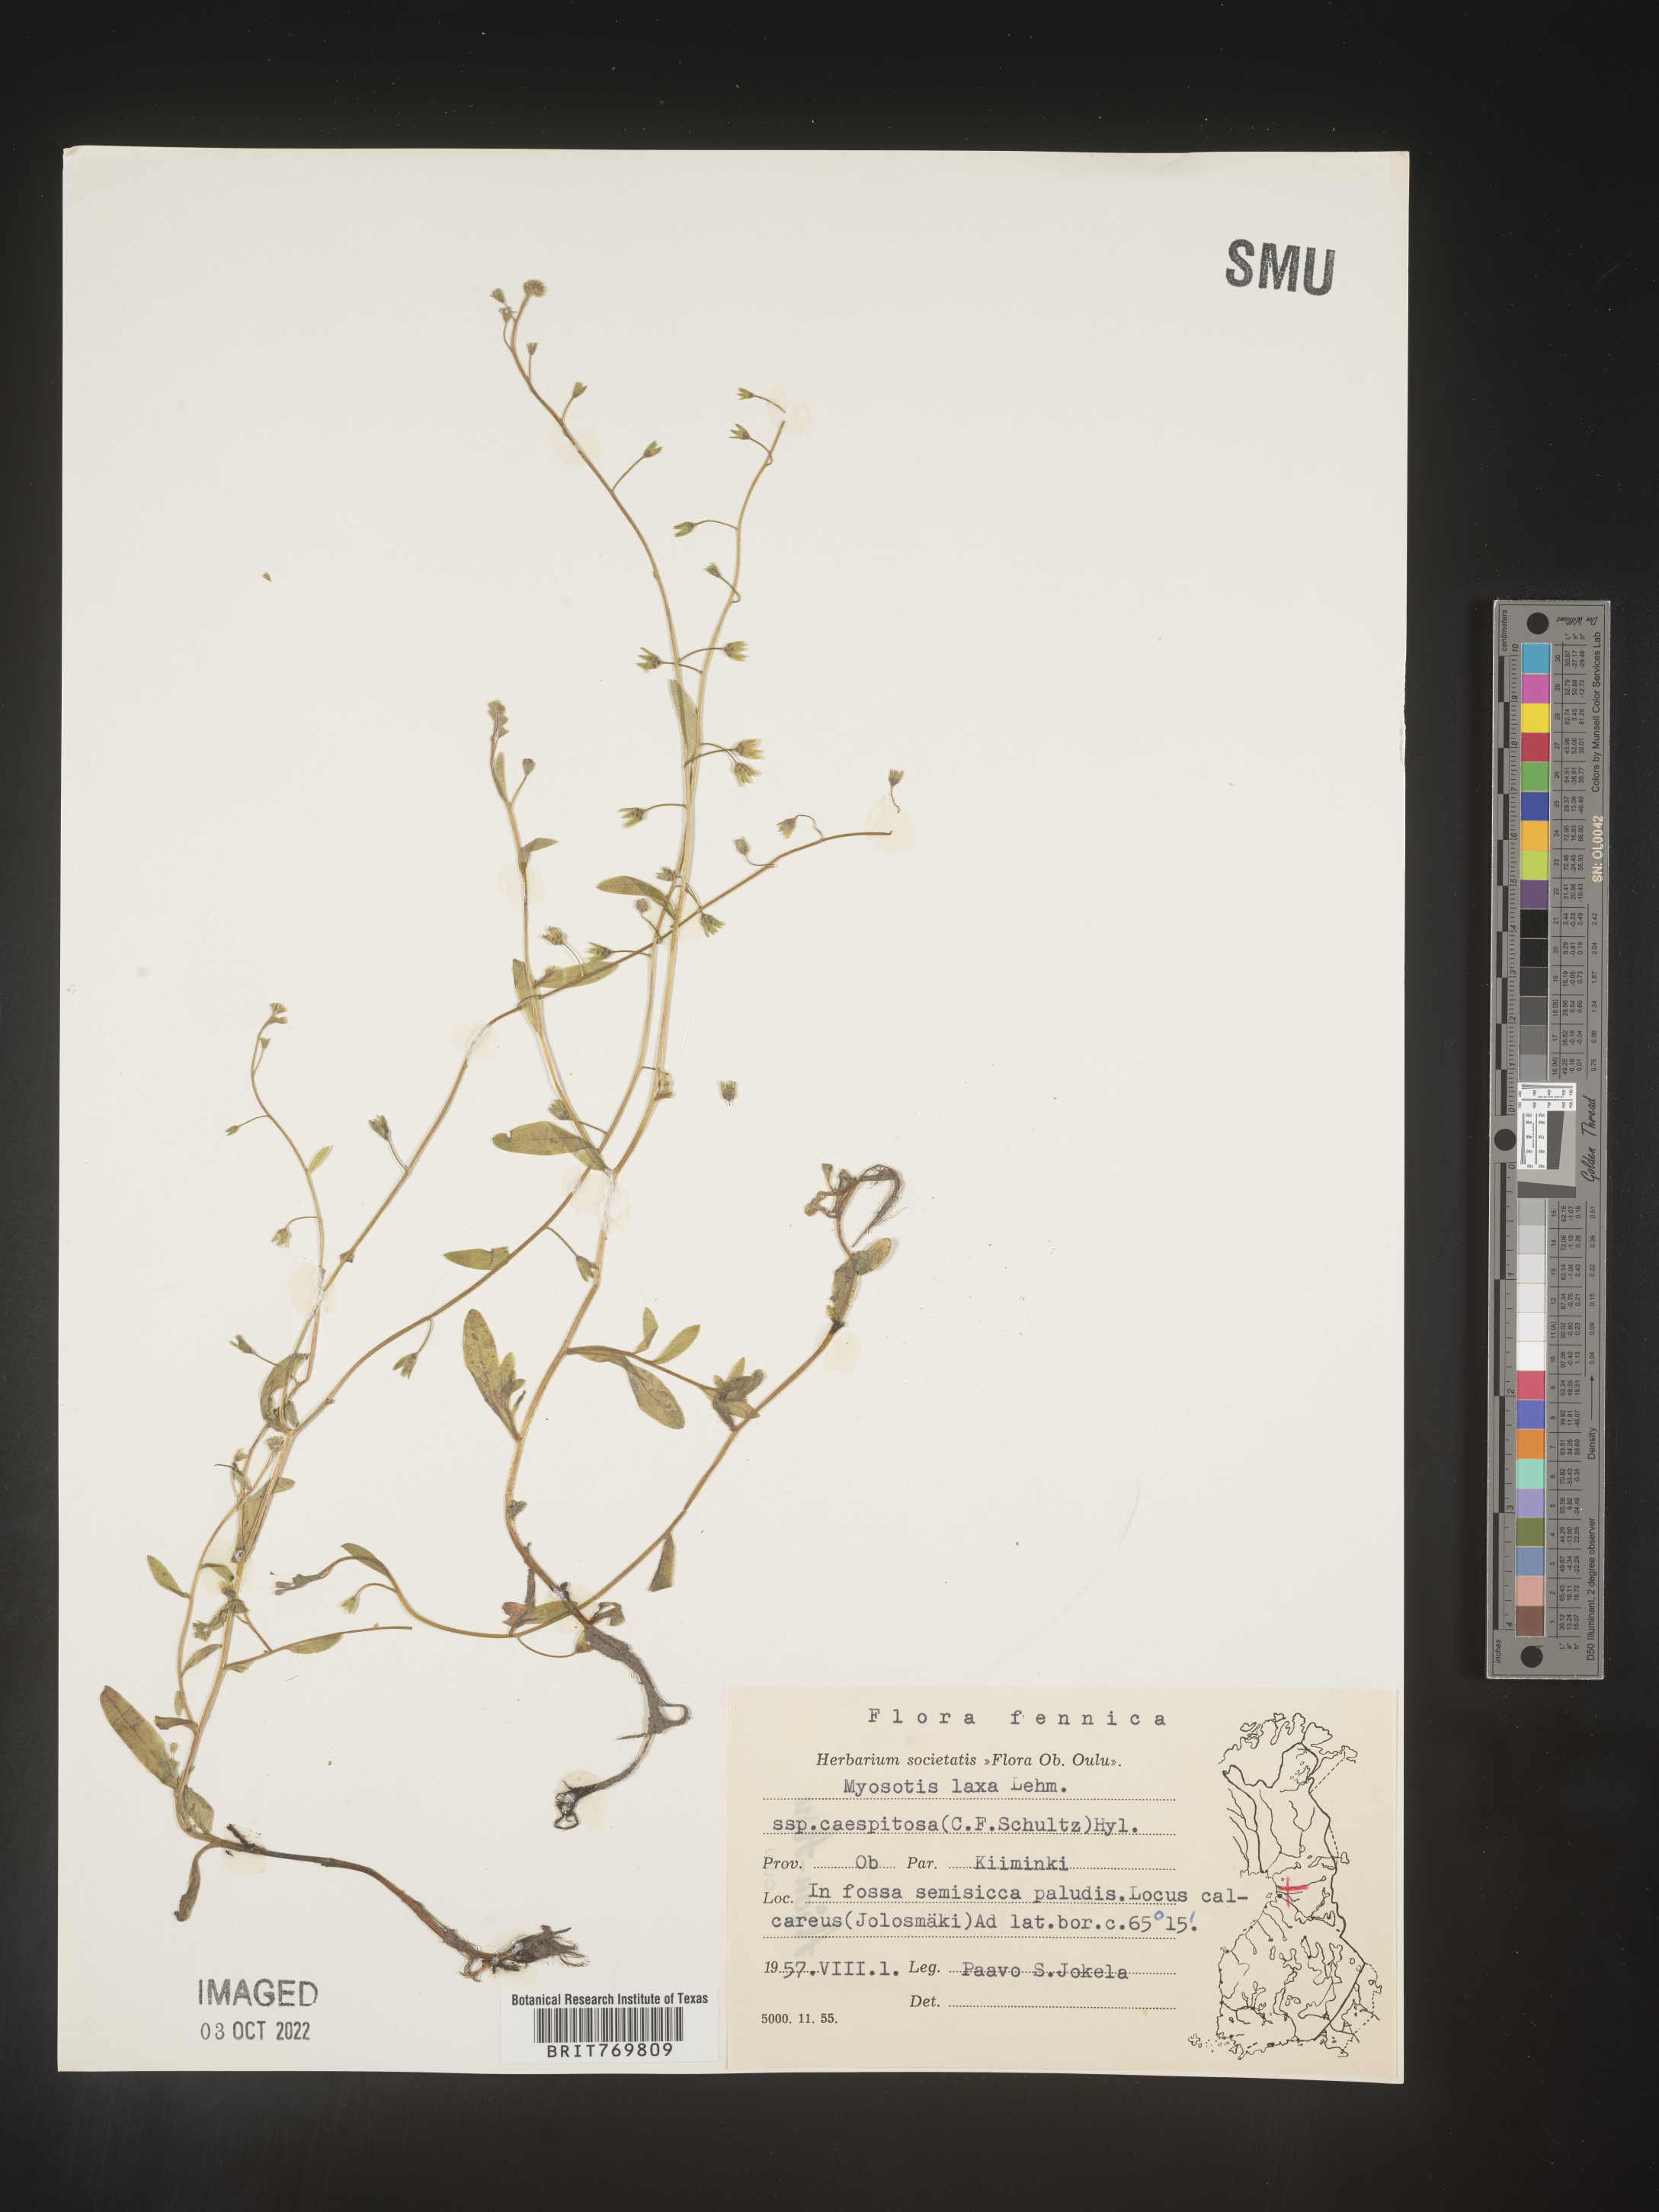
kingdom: Plantae
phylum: Tracheophyta
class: Magnoliopsida
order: Boraginales
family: Boraginaceae
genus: Myosotis
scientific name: Myosotis
